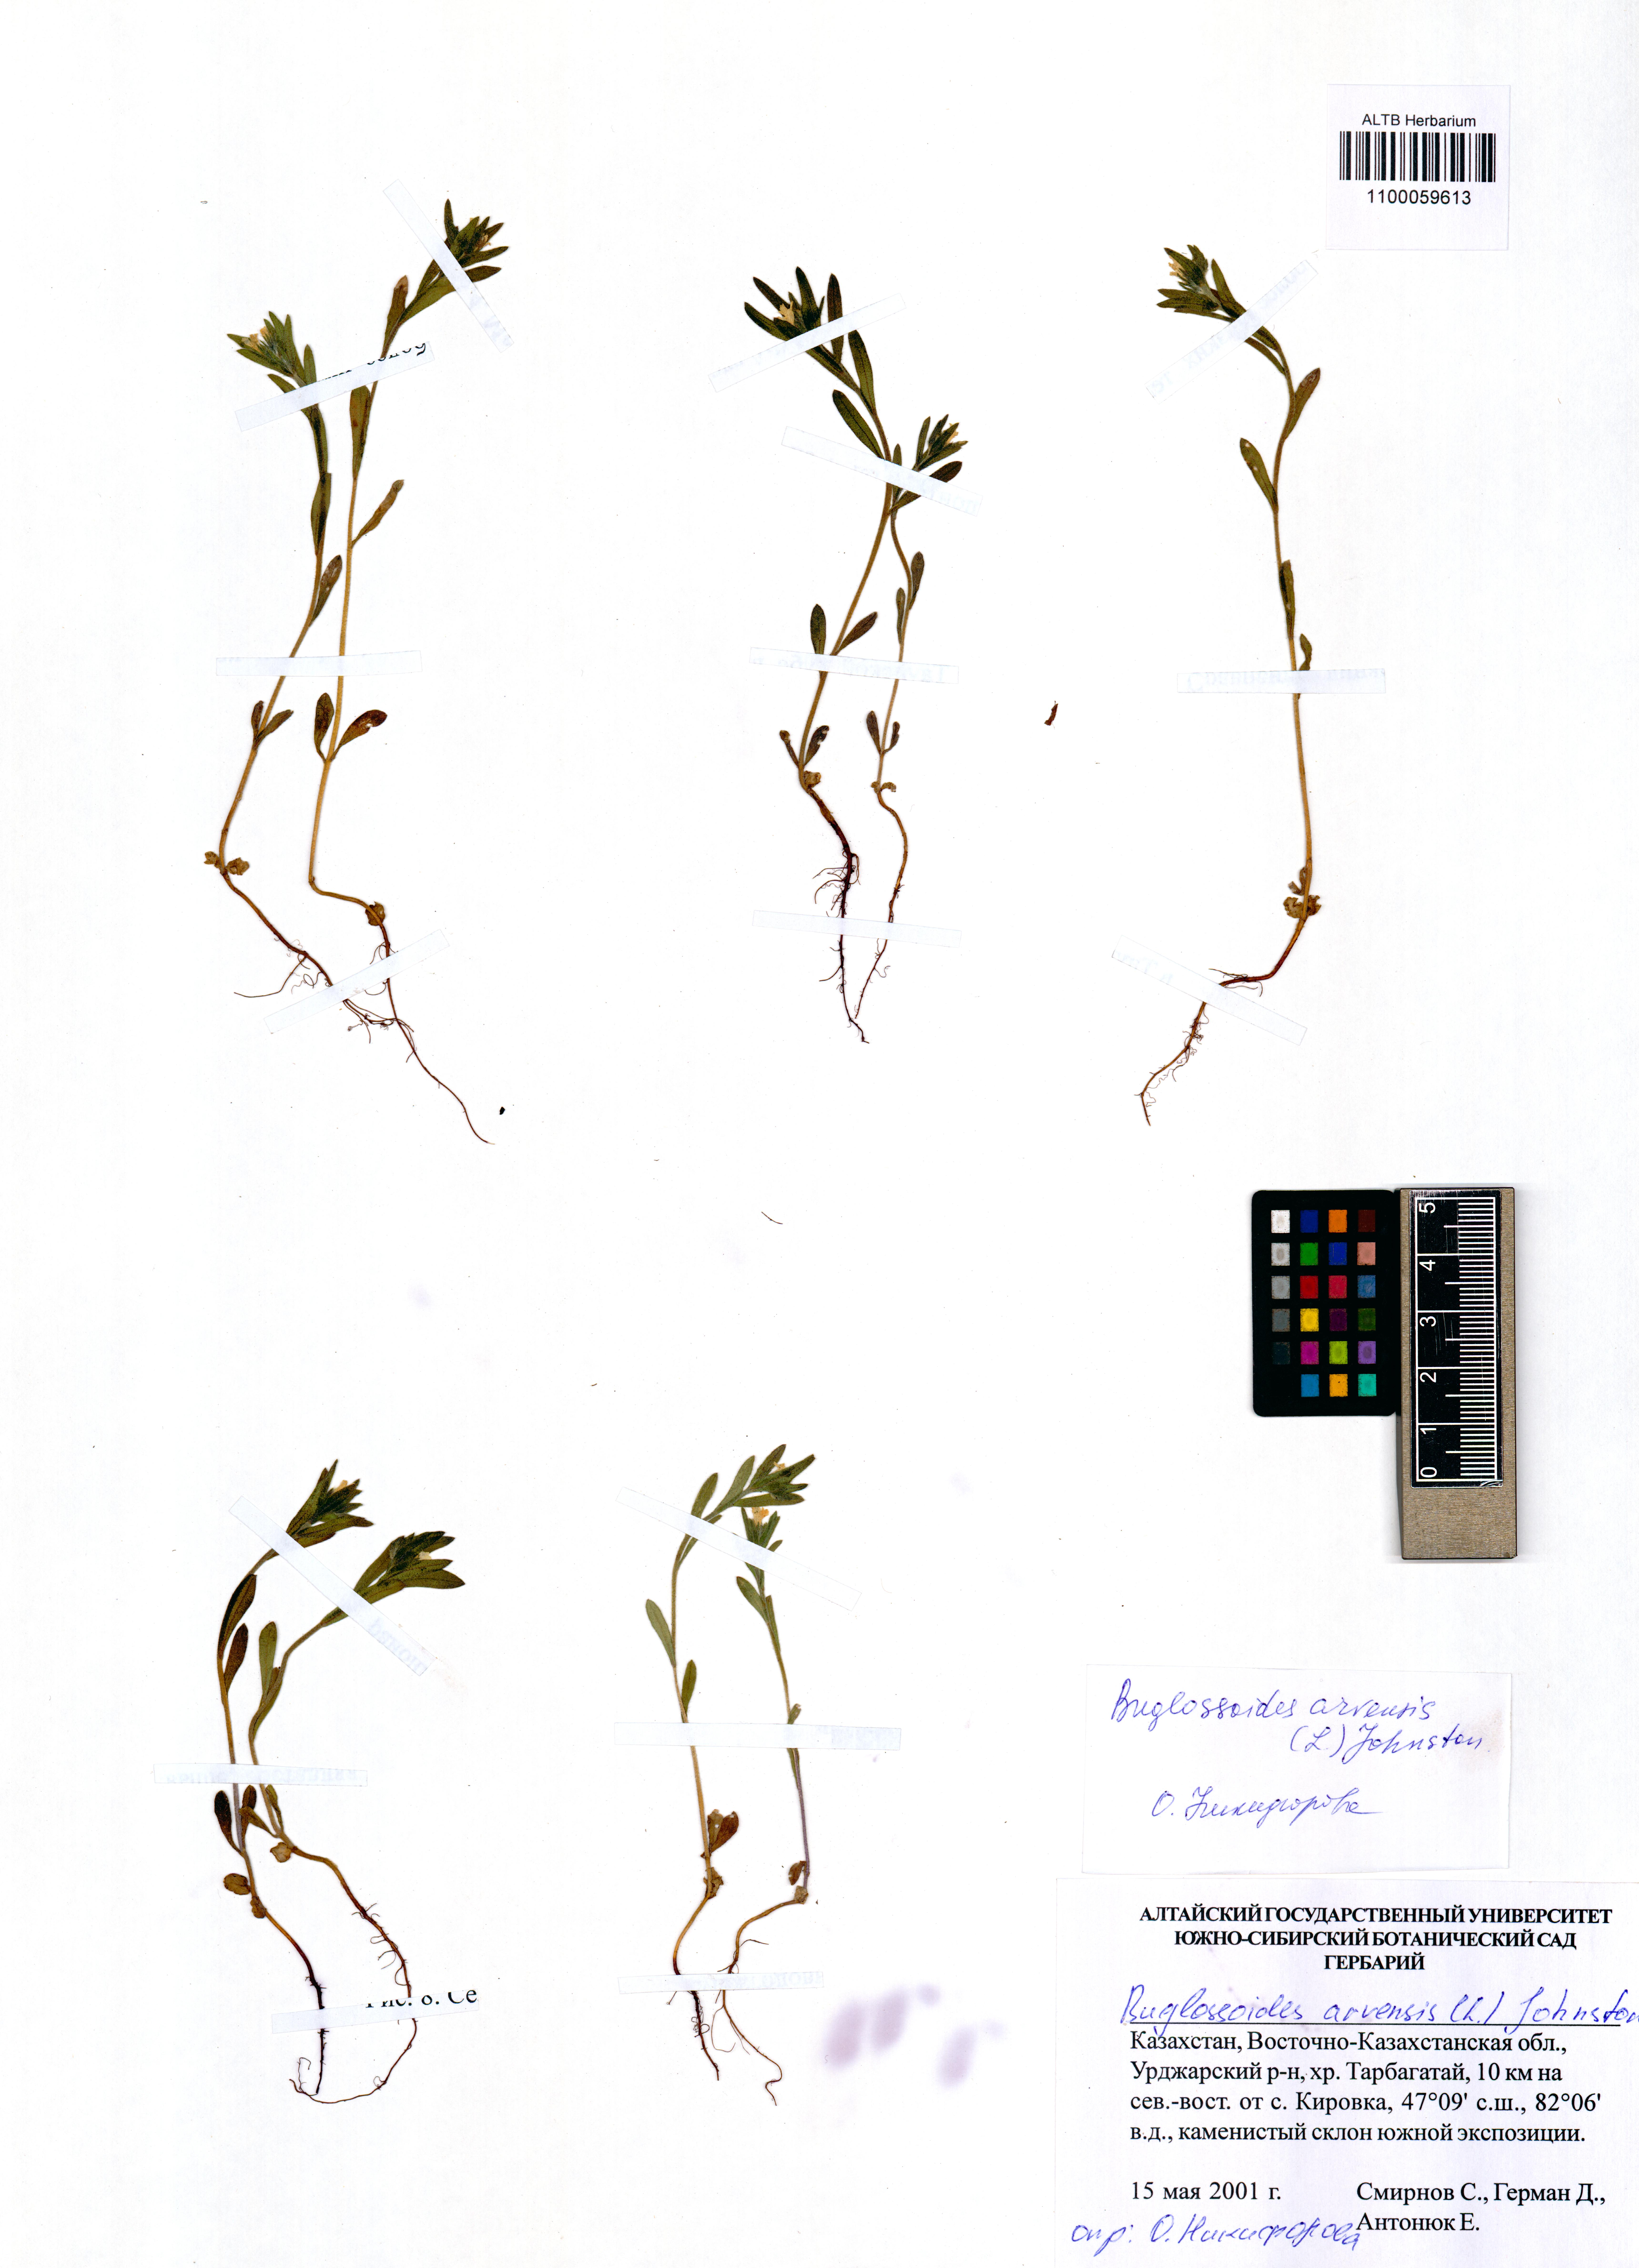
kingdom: Plantae
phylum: Tracheophyta
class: Magnoliopsida
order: Boraginales
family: Boraginaceae
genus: Buglossoides
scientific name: Buglossoides arvensis
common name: Corn gromwell
